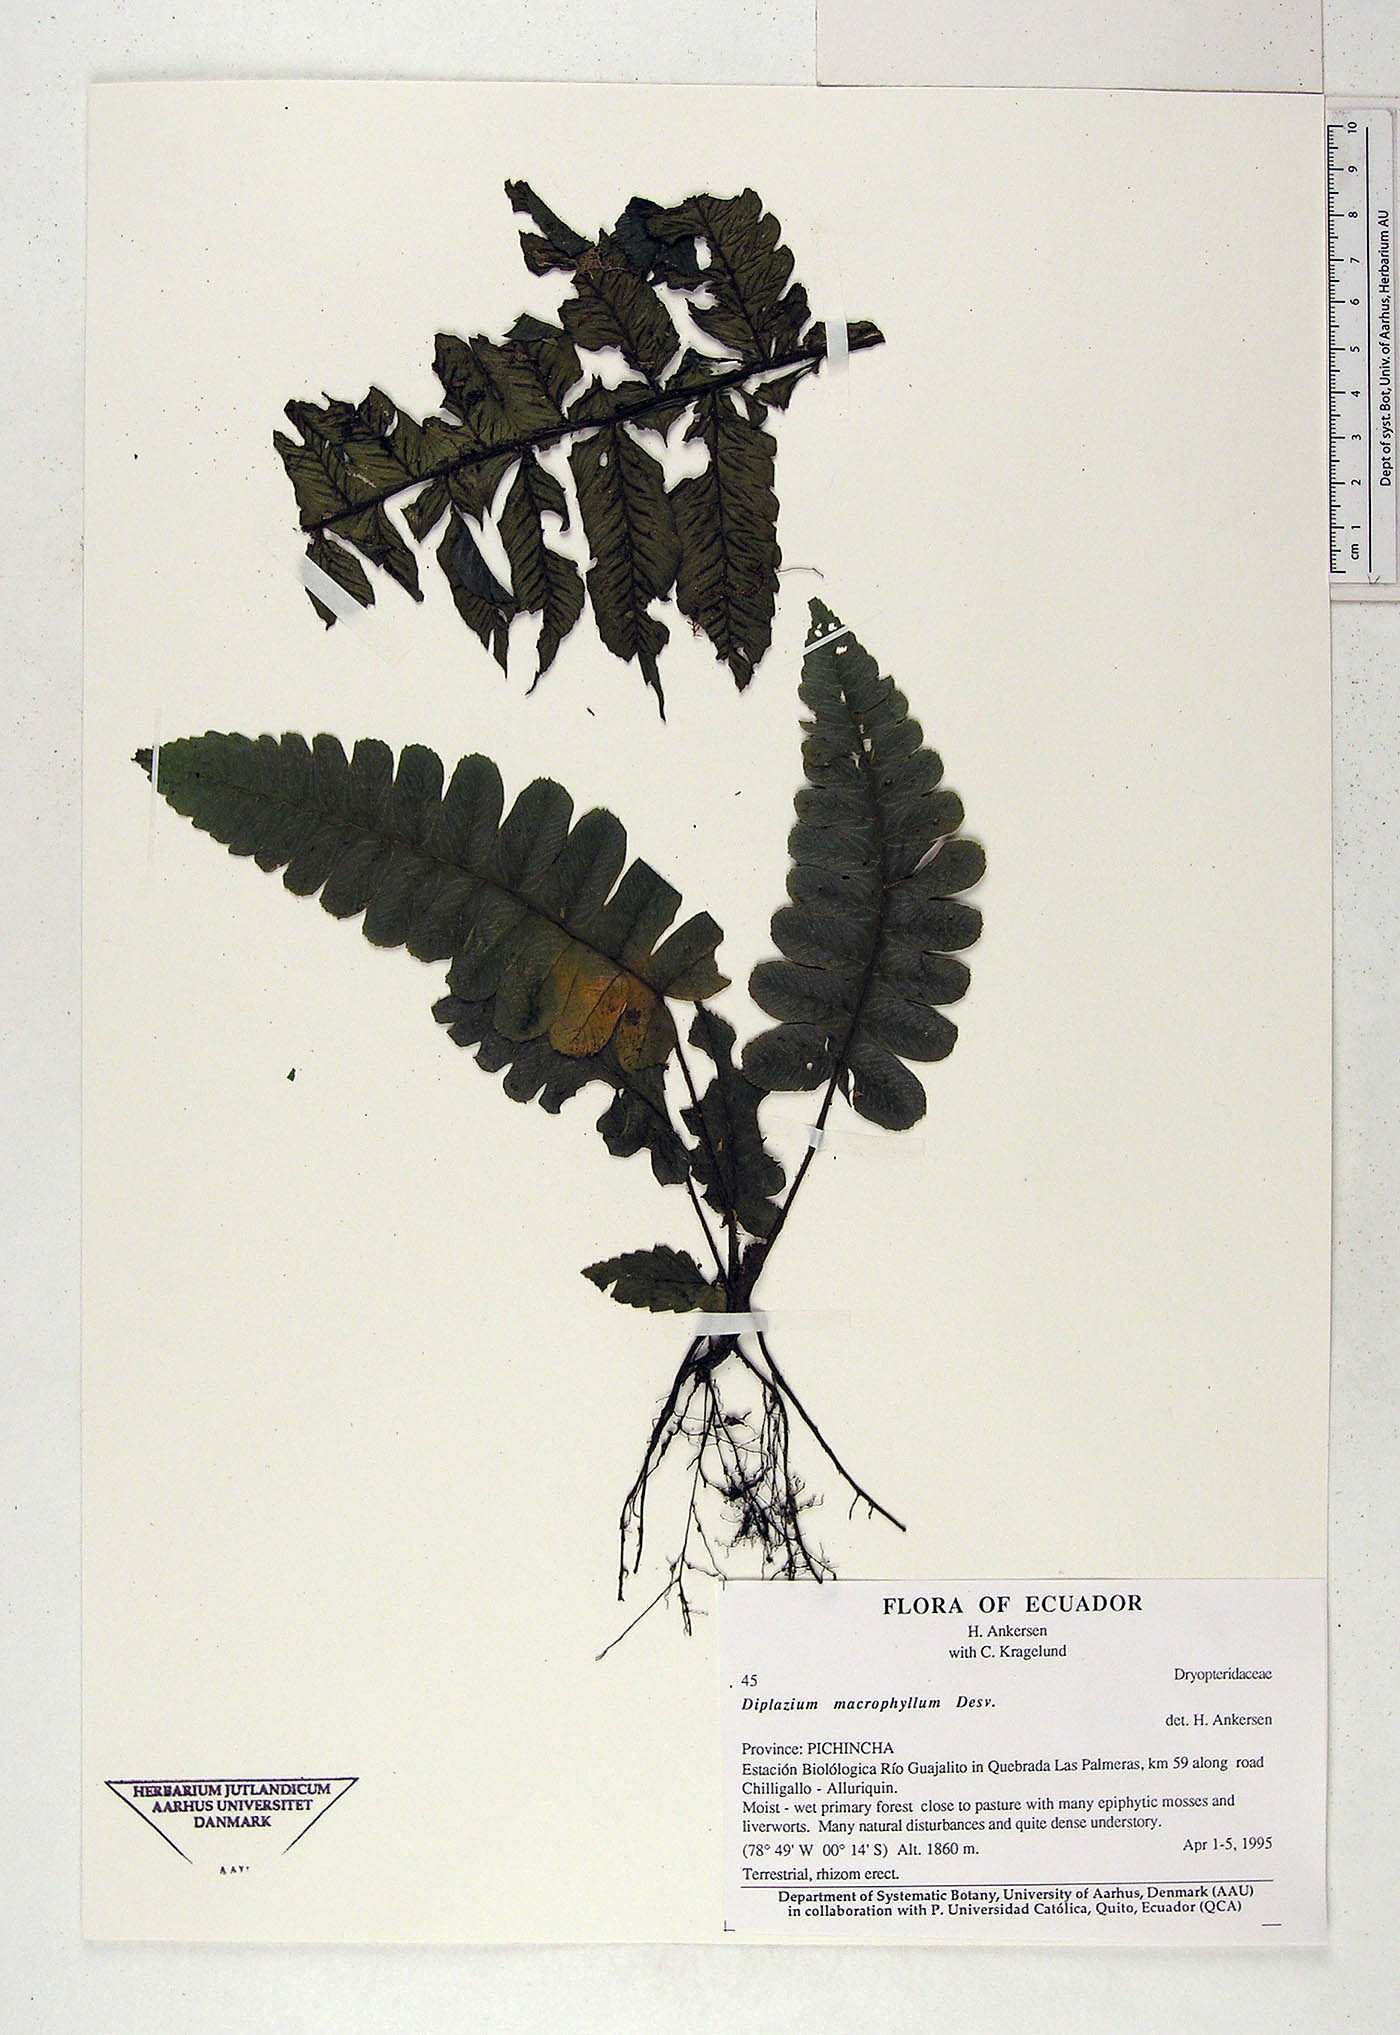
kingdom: Plantae
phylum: Tracheophyta
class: Polypodiopsida
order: Polypodiales
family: Athyriaceae
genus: Diplazium
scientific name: Diplazium macrophyllum
